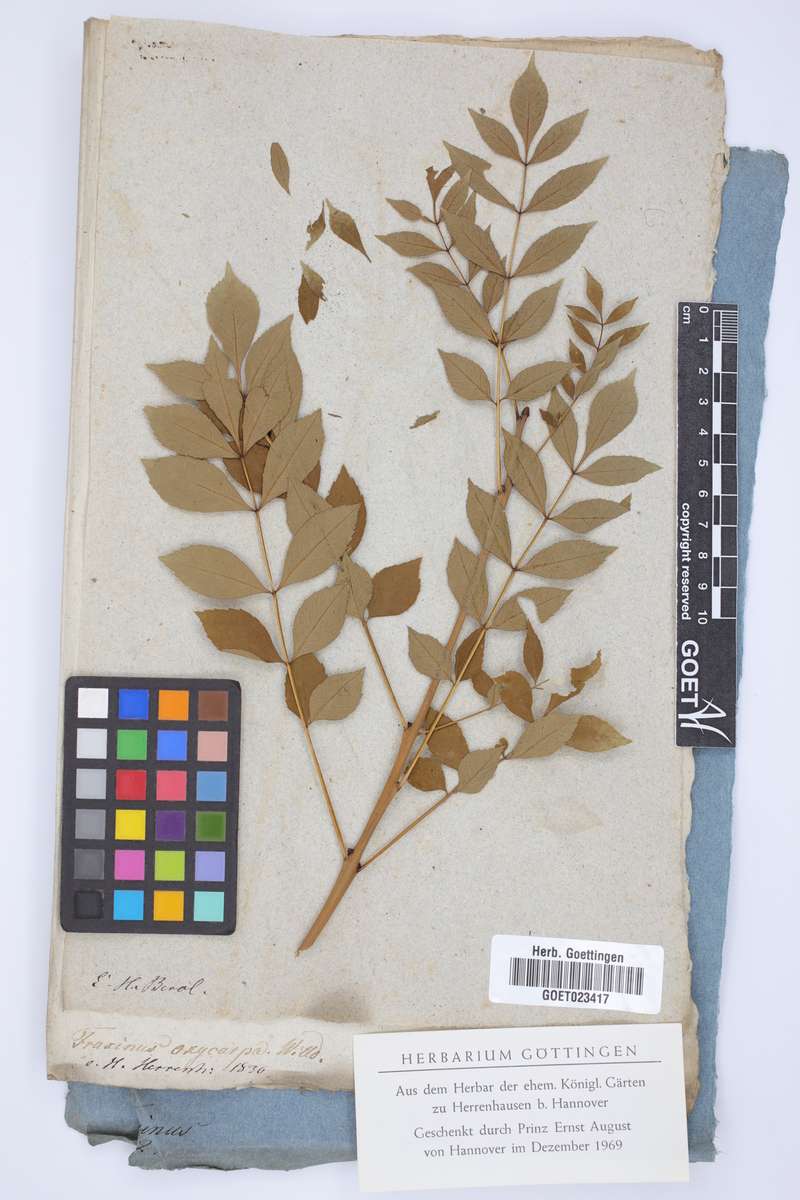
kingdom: Plantae
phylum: Tracheophyta
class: Magnoliopsida
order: Lamiales
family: Oleaceae
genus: Fraxinus
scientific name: Fraxinus angustifolia
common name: Narrow-leafed ash
